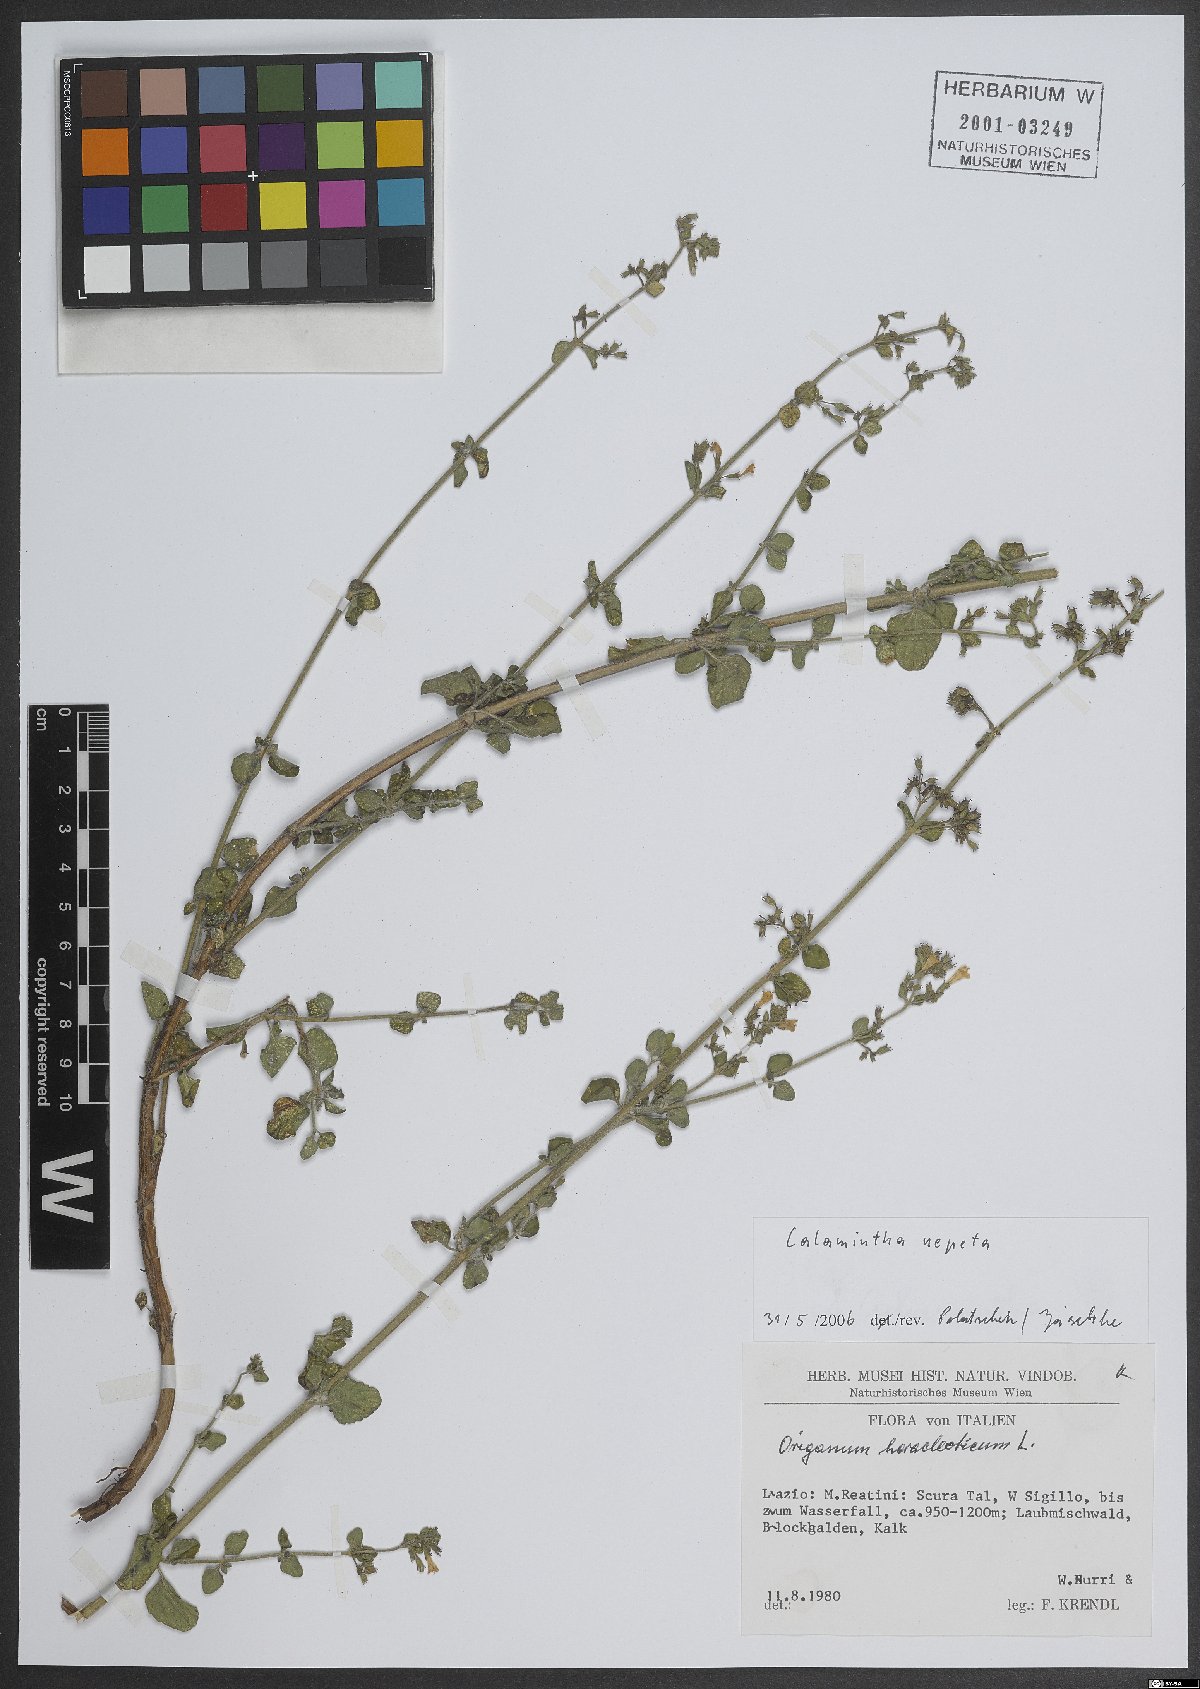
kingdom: Plantae
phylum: Tracheophyta
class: Magnoliopsida
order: Lamiales
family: Lamiaceae
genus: Clinopodium
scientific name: Clinopodium nepeta
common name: Lesser calamint
